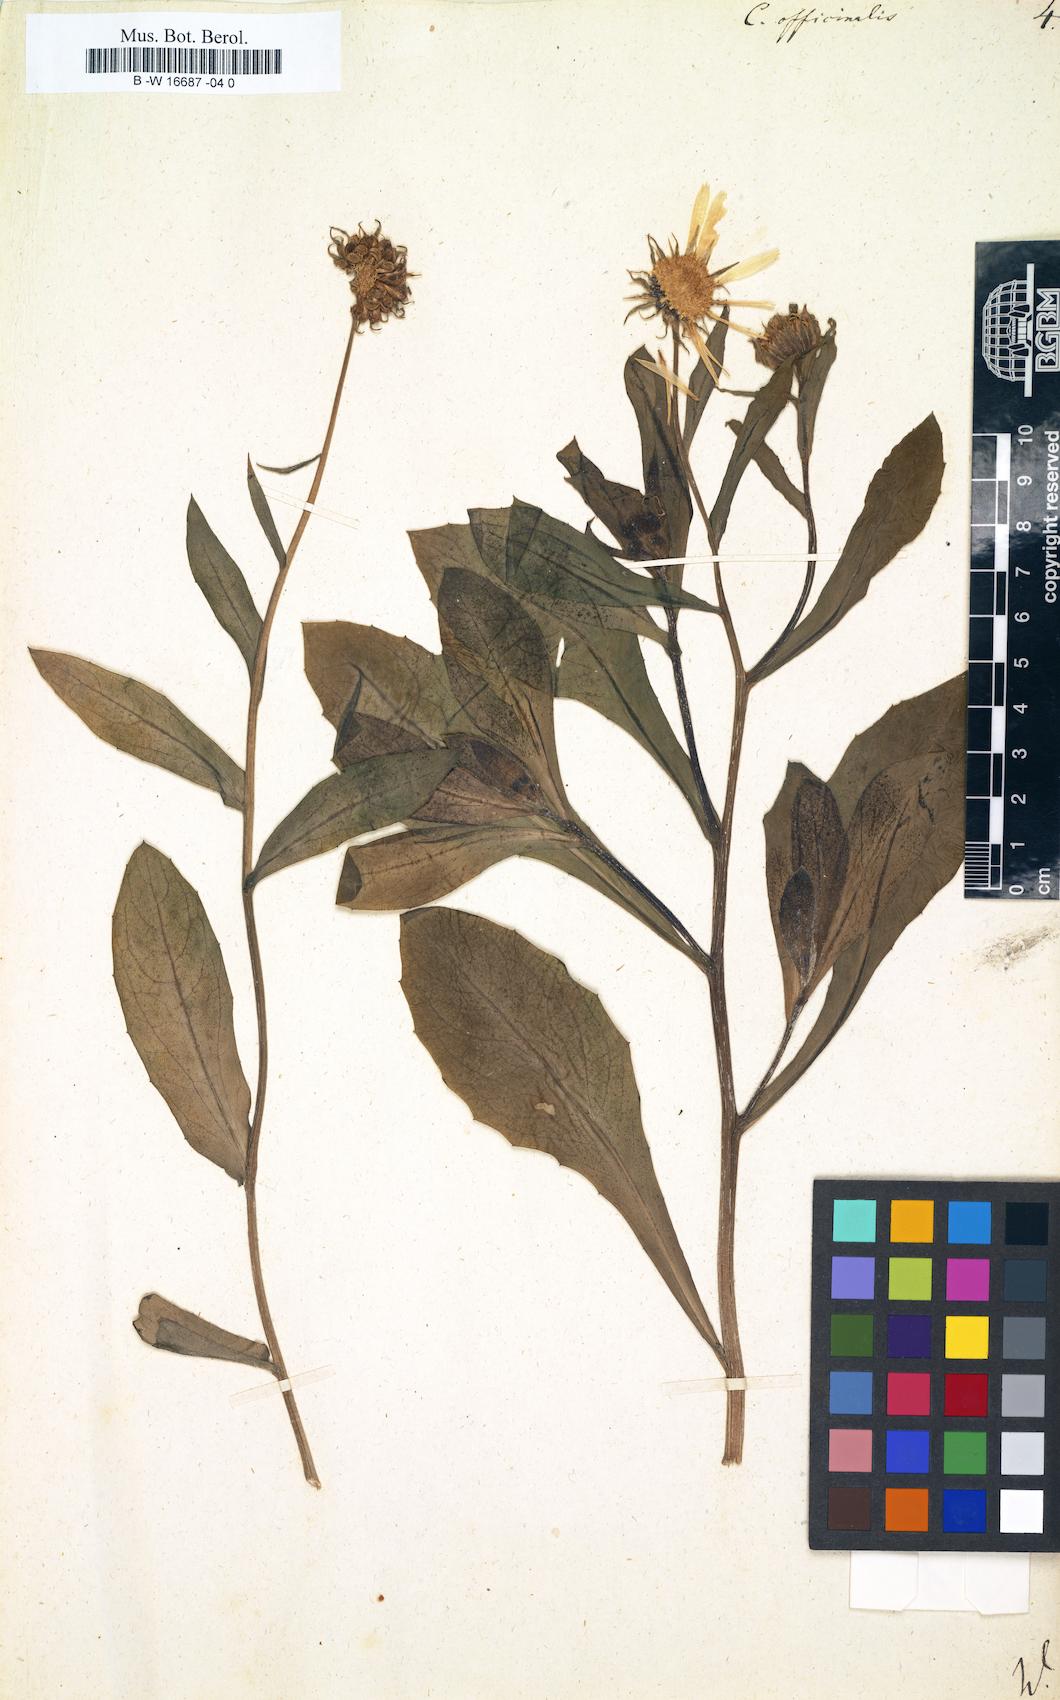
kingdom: Plantae
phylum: Tracheophyta
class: Magnoliopsida
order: Asterales
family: Asteraceae
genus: Calendula
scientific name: Calendula officinalis
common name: Pot marigold
